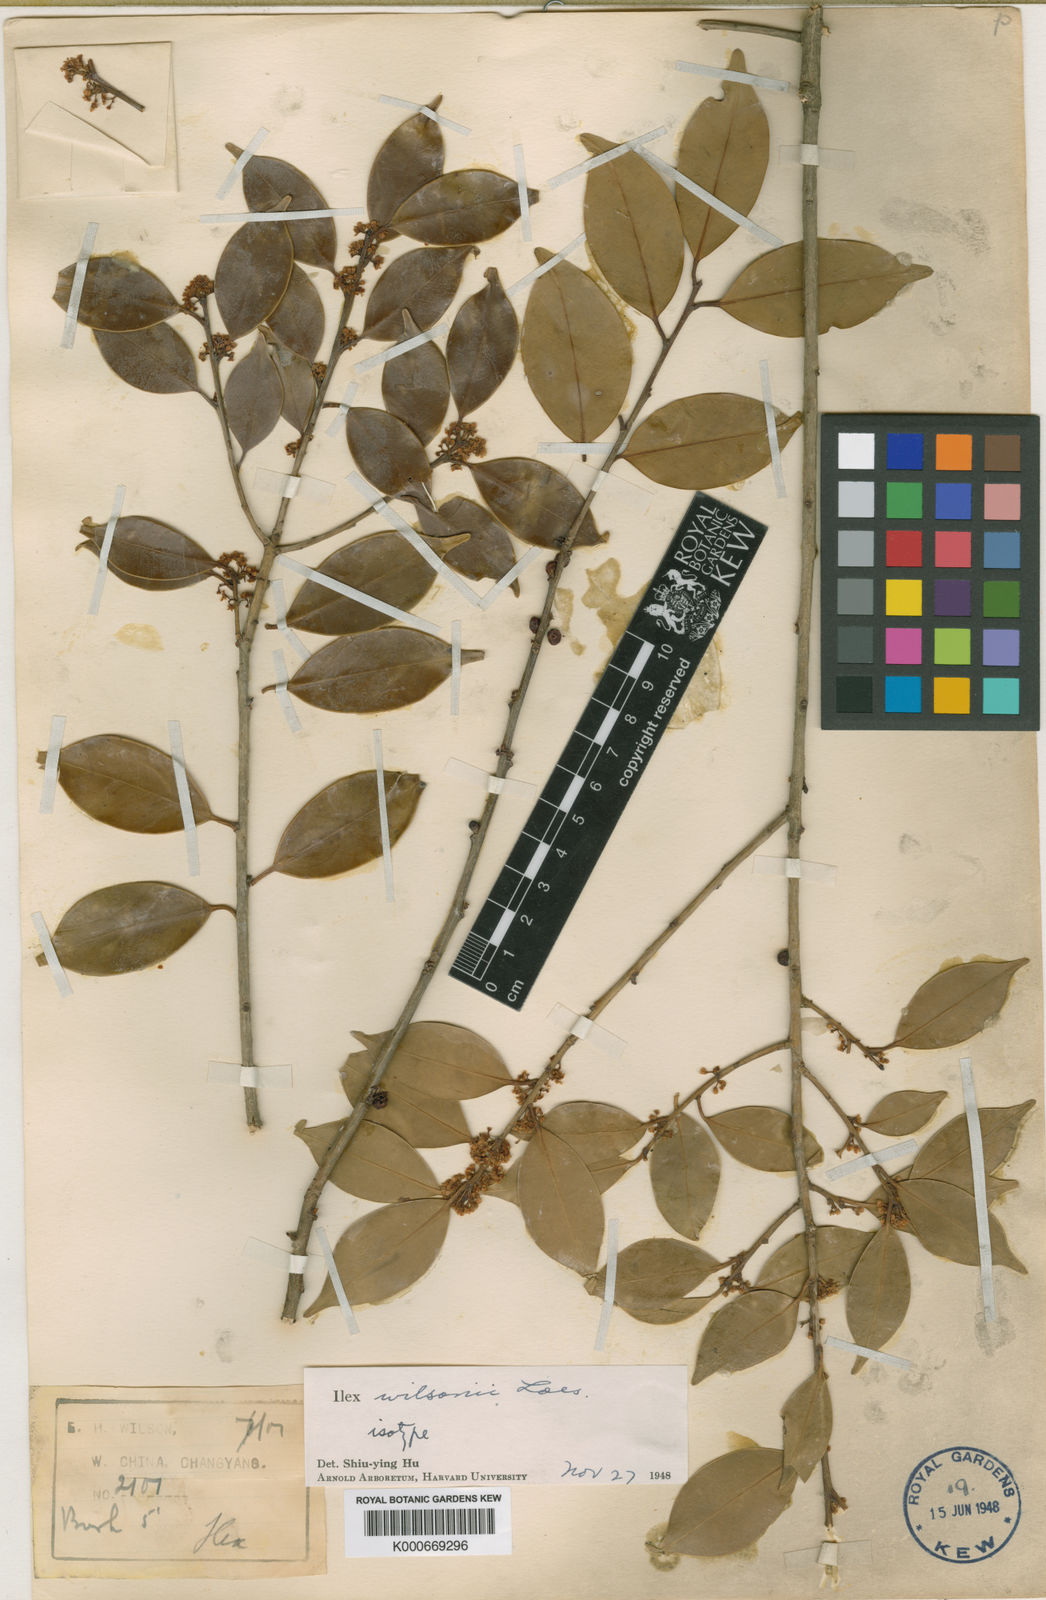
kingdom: Plantae
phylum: Tracheophyta
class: Magnoliopsida
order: Aquifoliales
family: Aquifoliaceae
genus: Ilex
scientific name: Ilex wilsonii
